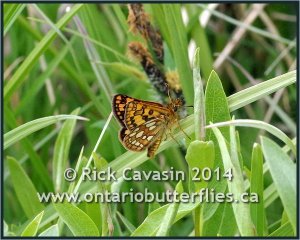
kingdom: Animalia
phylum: Arthropoda
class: Insecta
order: Lepidoptera
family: Hesperiidae
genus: Carterocephalus
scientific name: Carterocephalus palaemon
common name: Chequered Skipper
